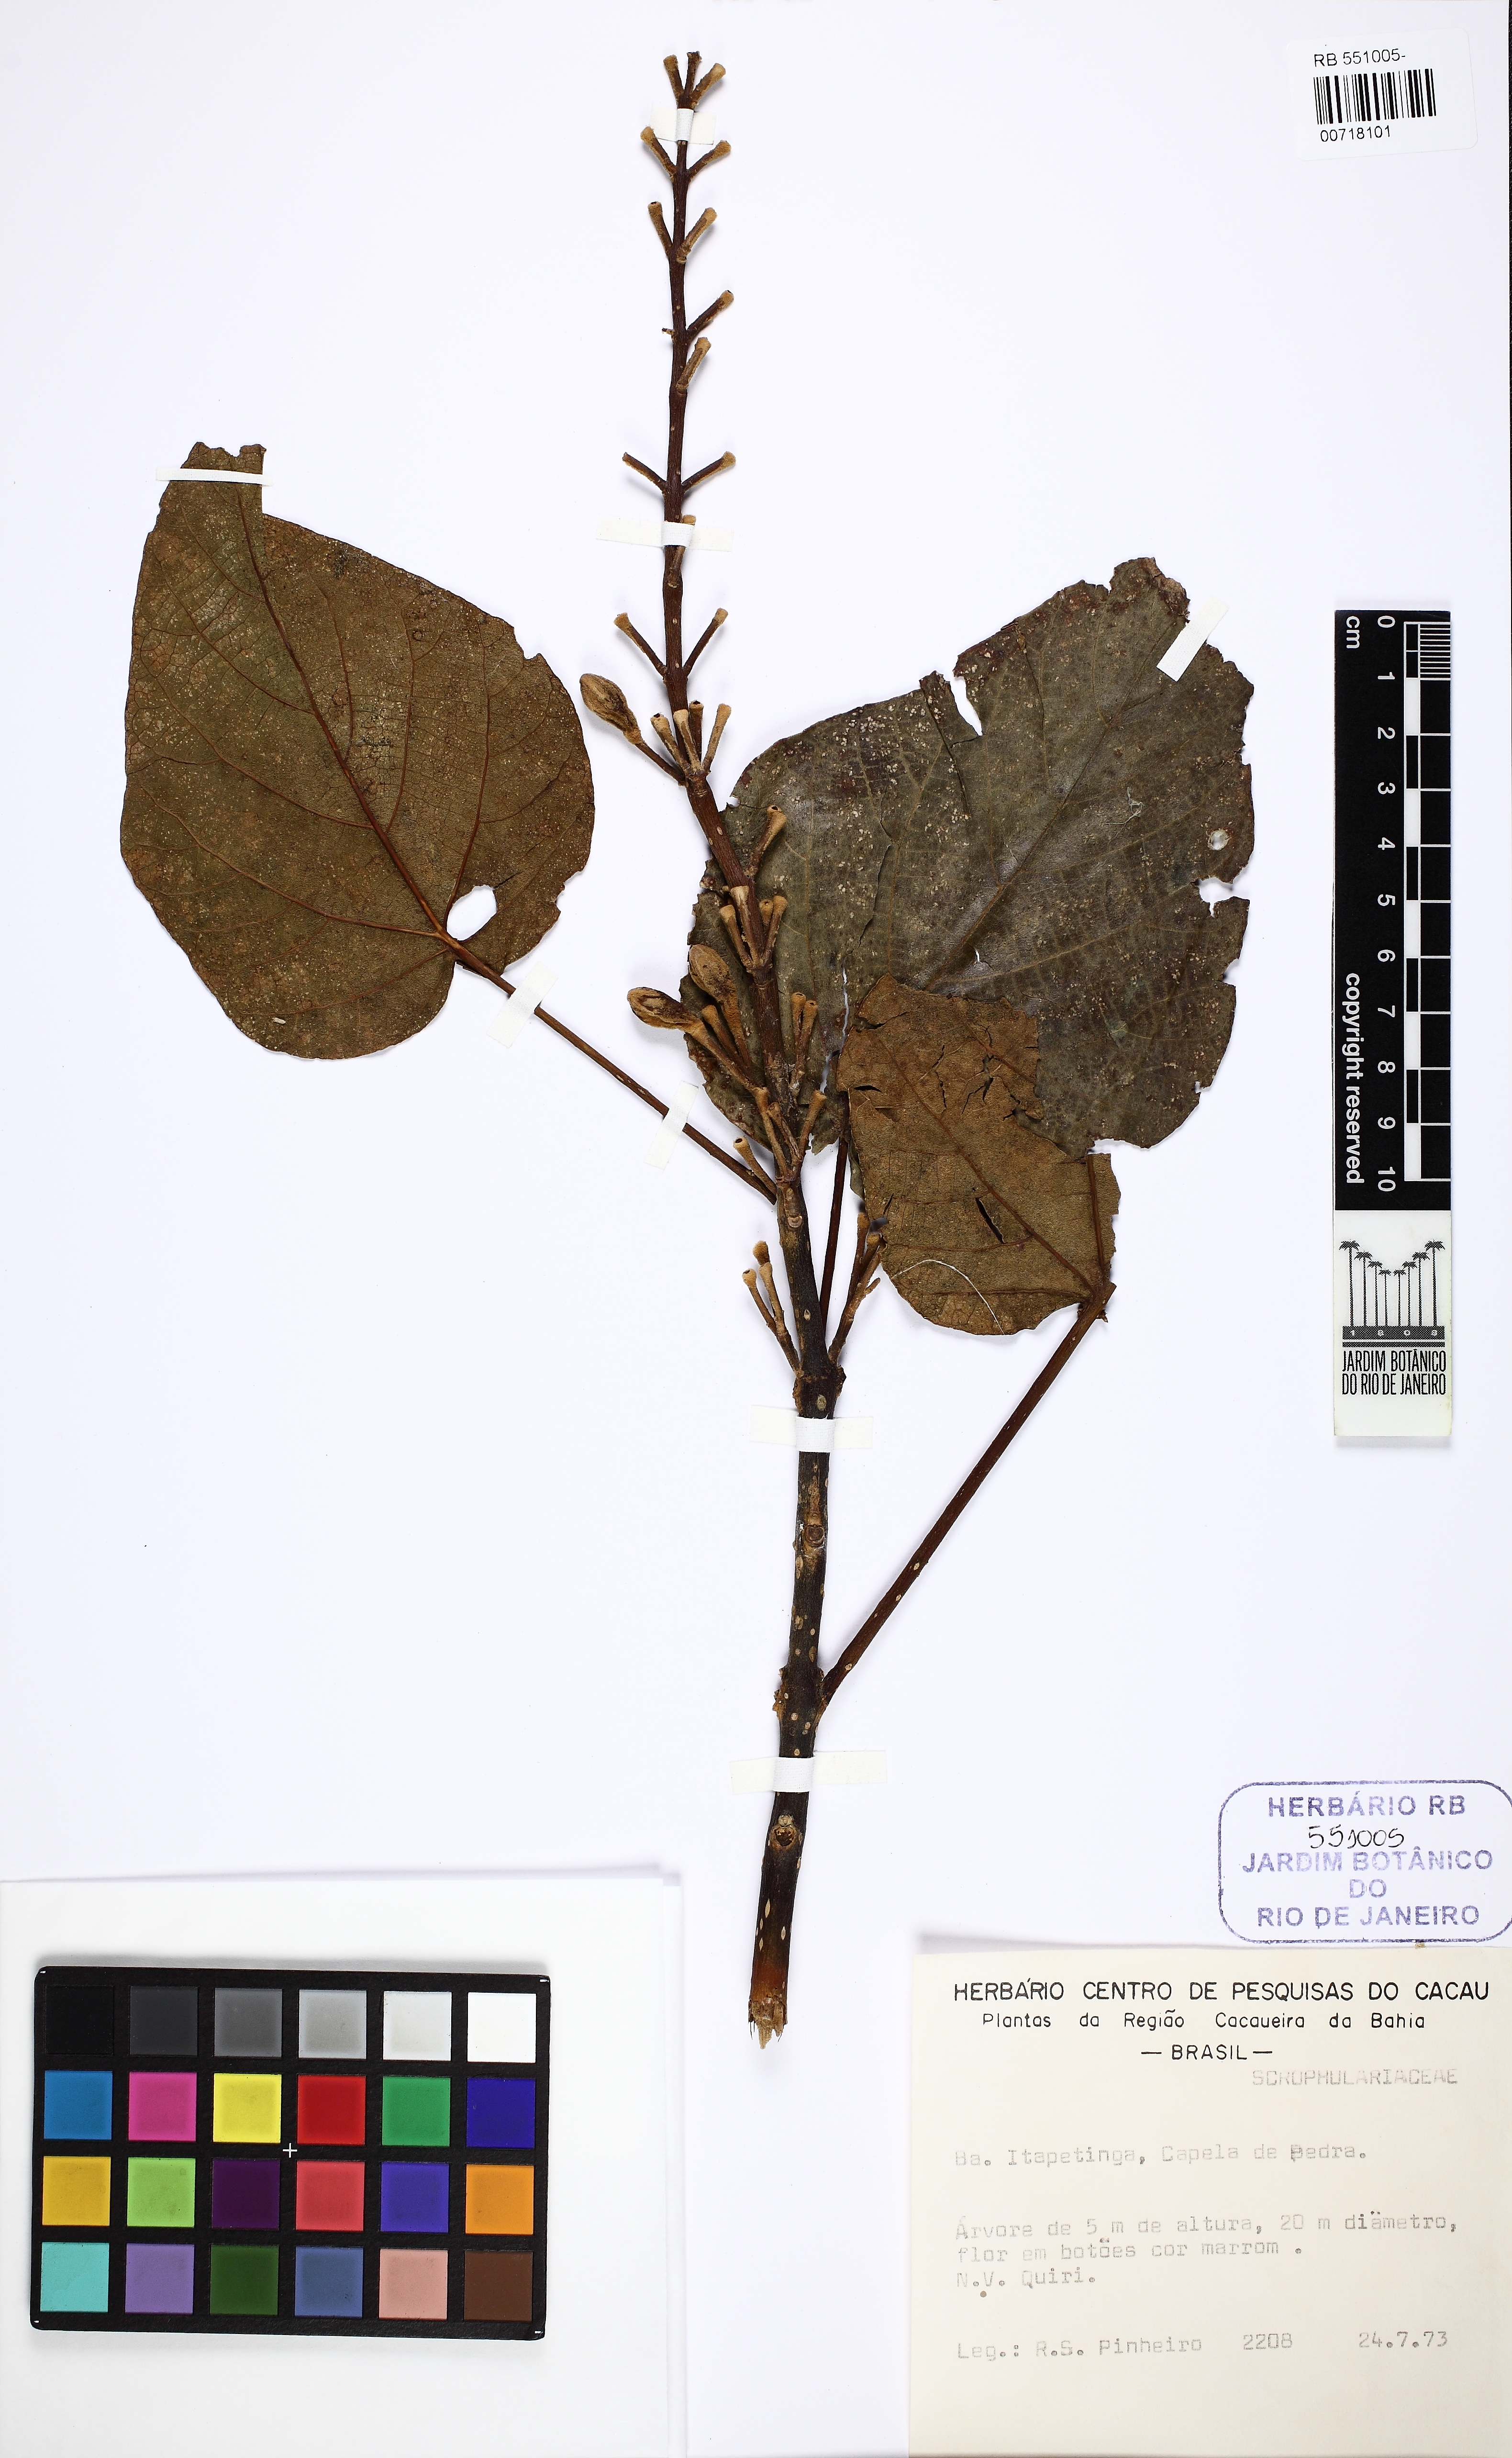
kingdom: Plantae
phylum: Tracheophyta
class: Magnoliopsida
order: Lamiales
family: Paulowniaceae
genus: Paulownia
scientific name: Paulownia
